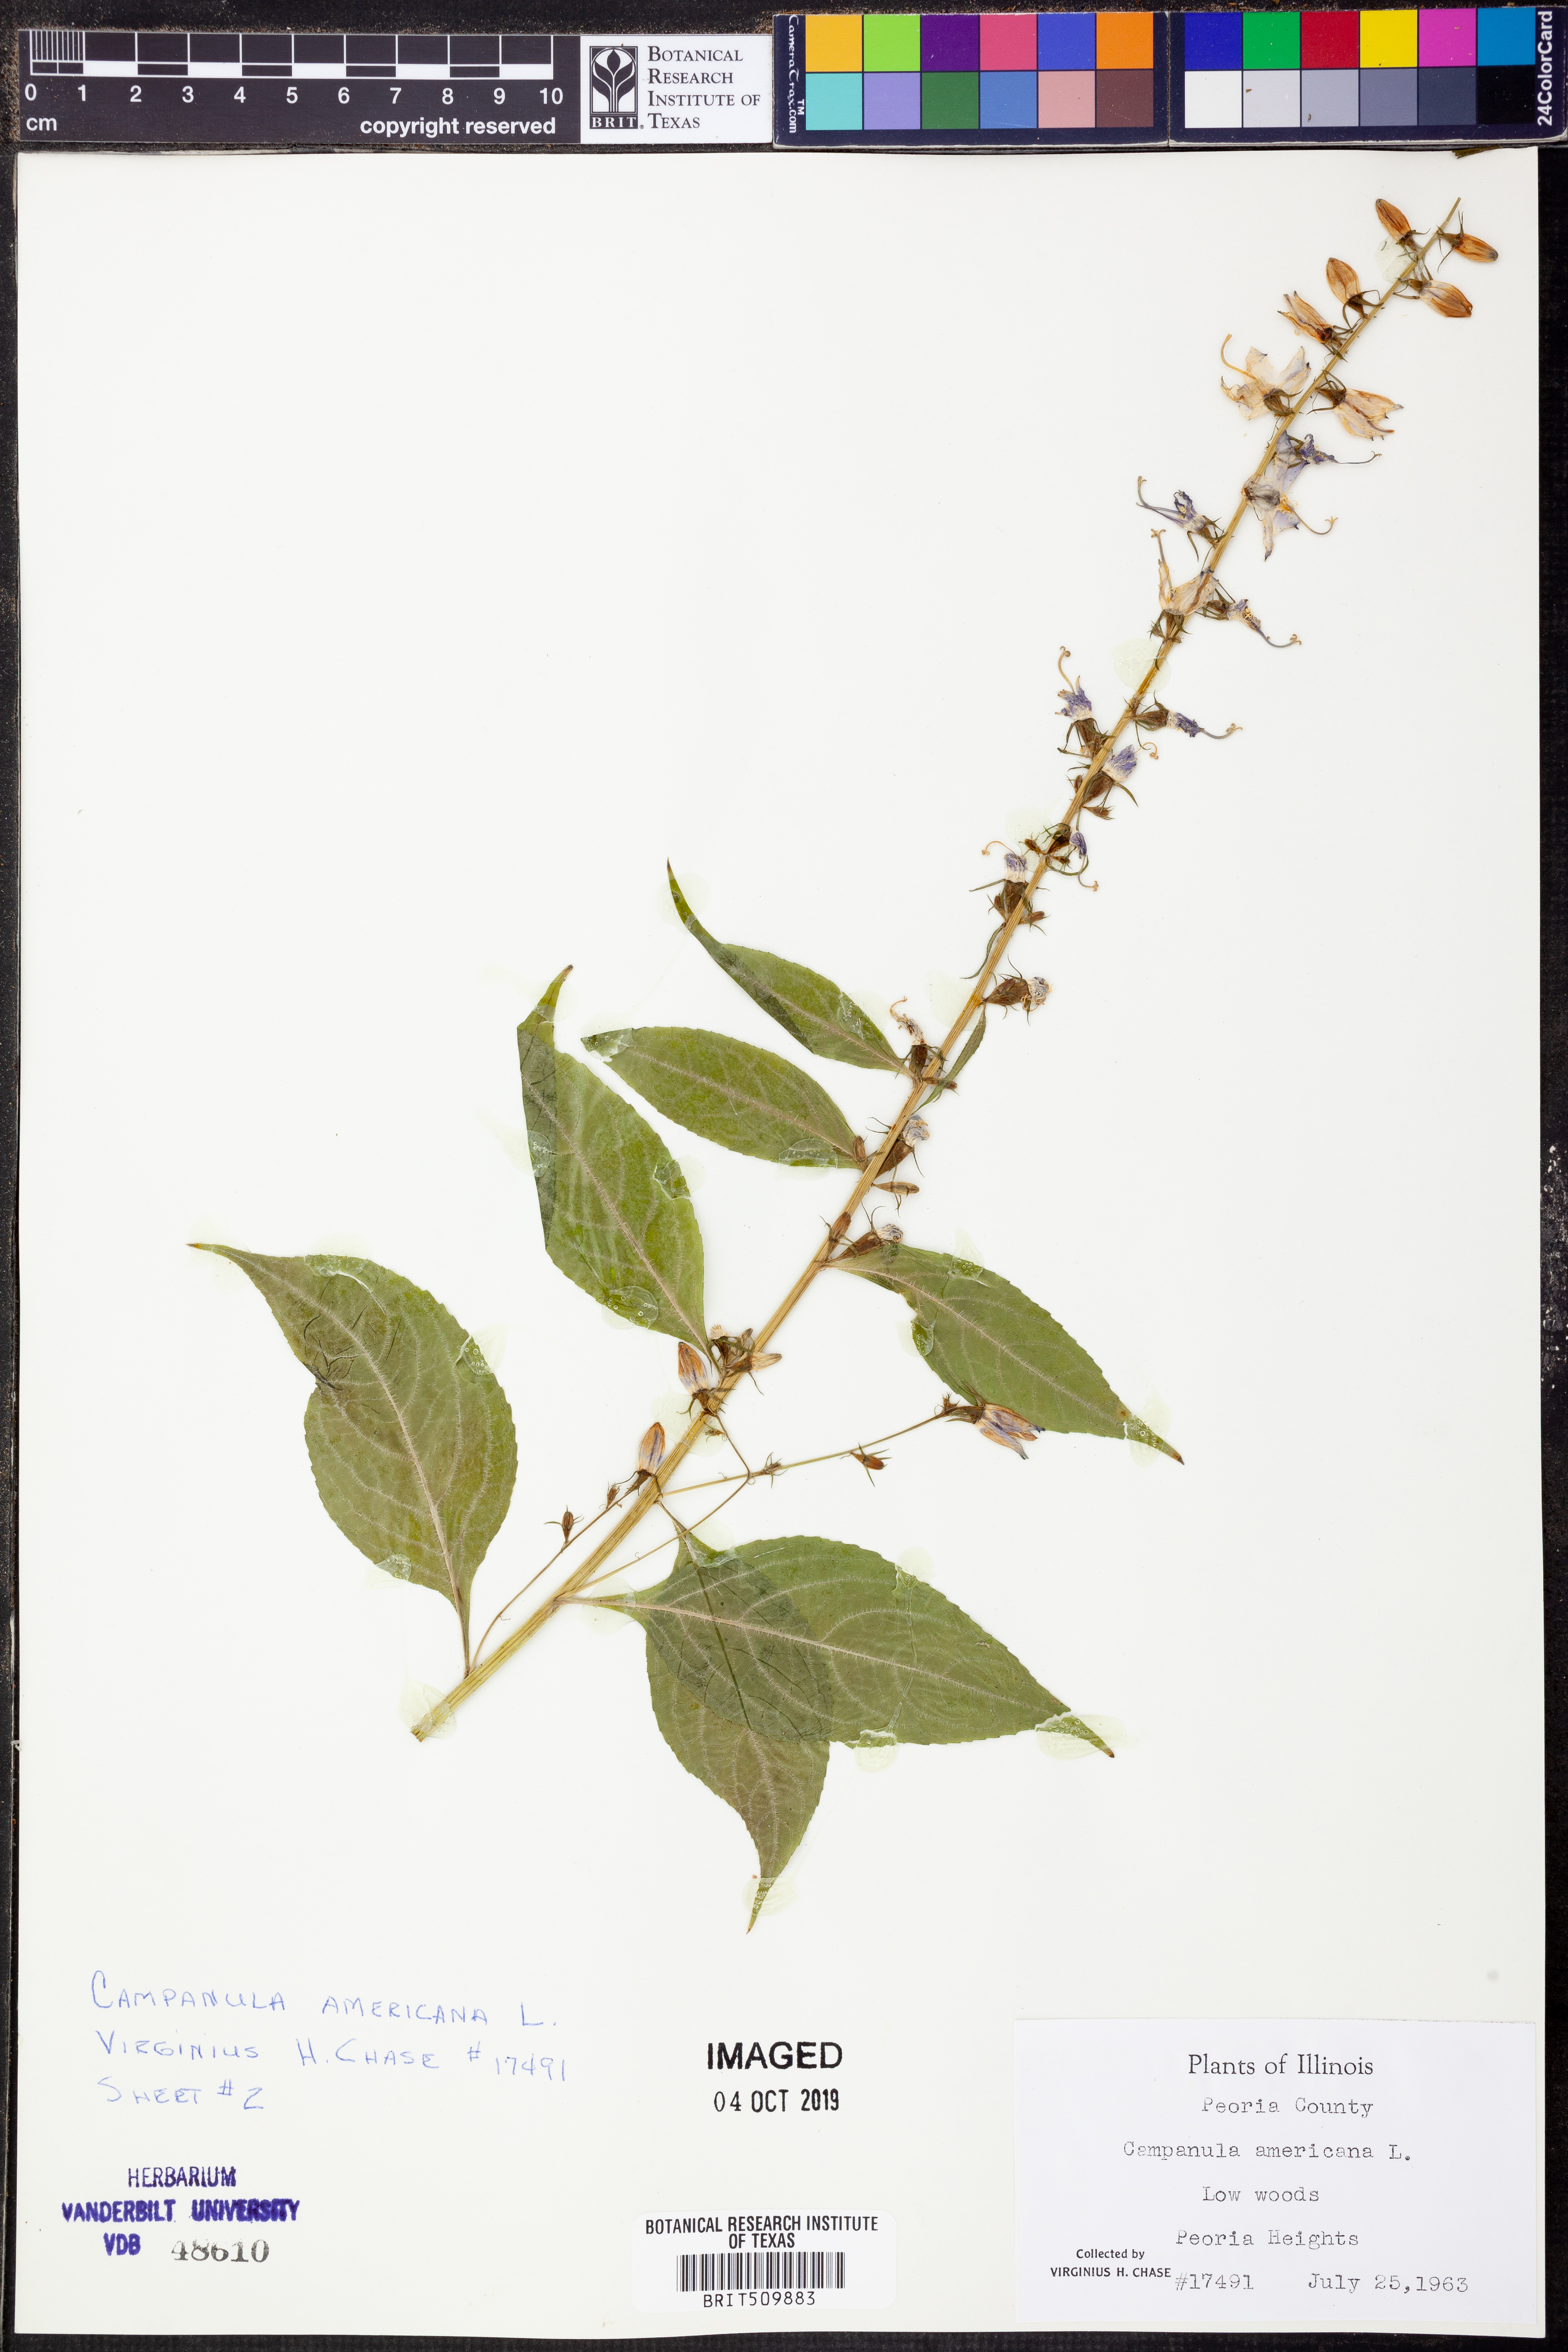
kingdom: Plantae
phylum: Tracheophyta
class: Magnoliopsida
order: Asterales
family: Campanulaceae
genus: Campanula
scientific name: Campanula americana
